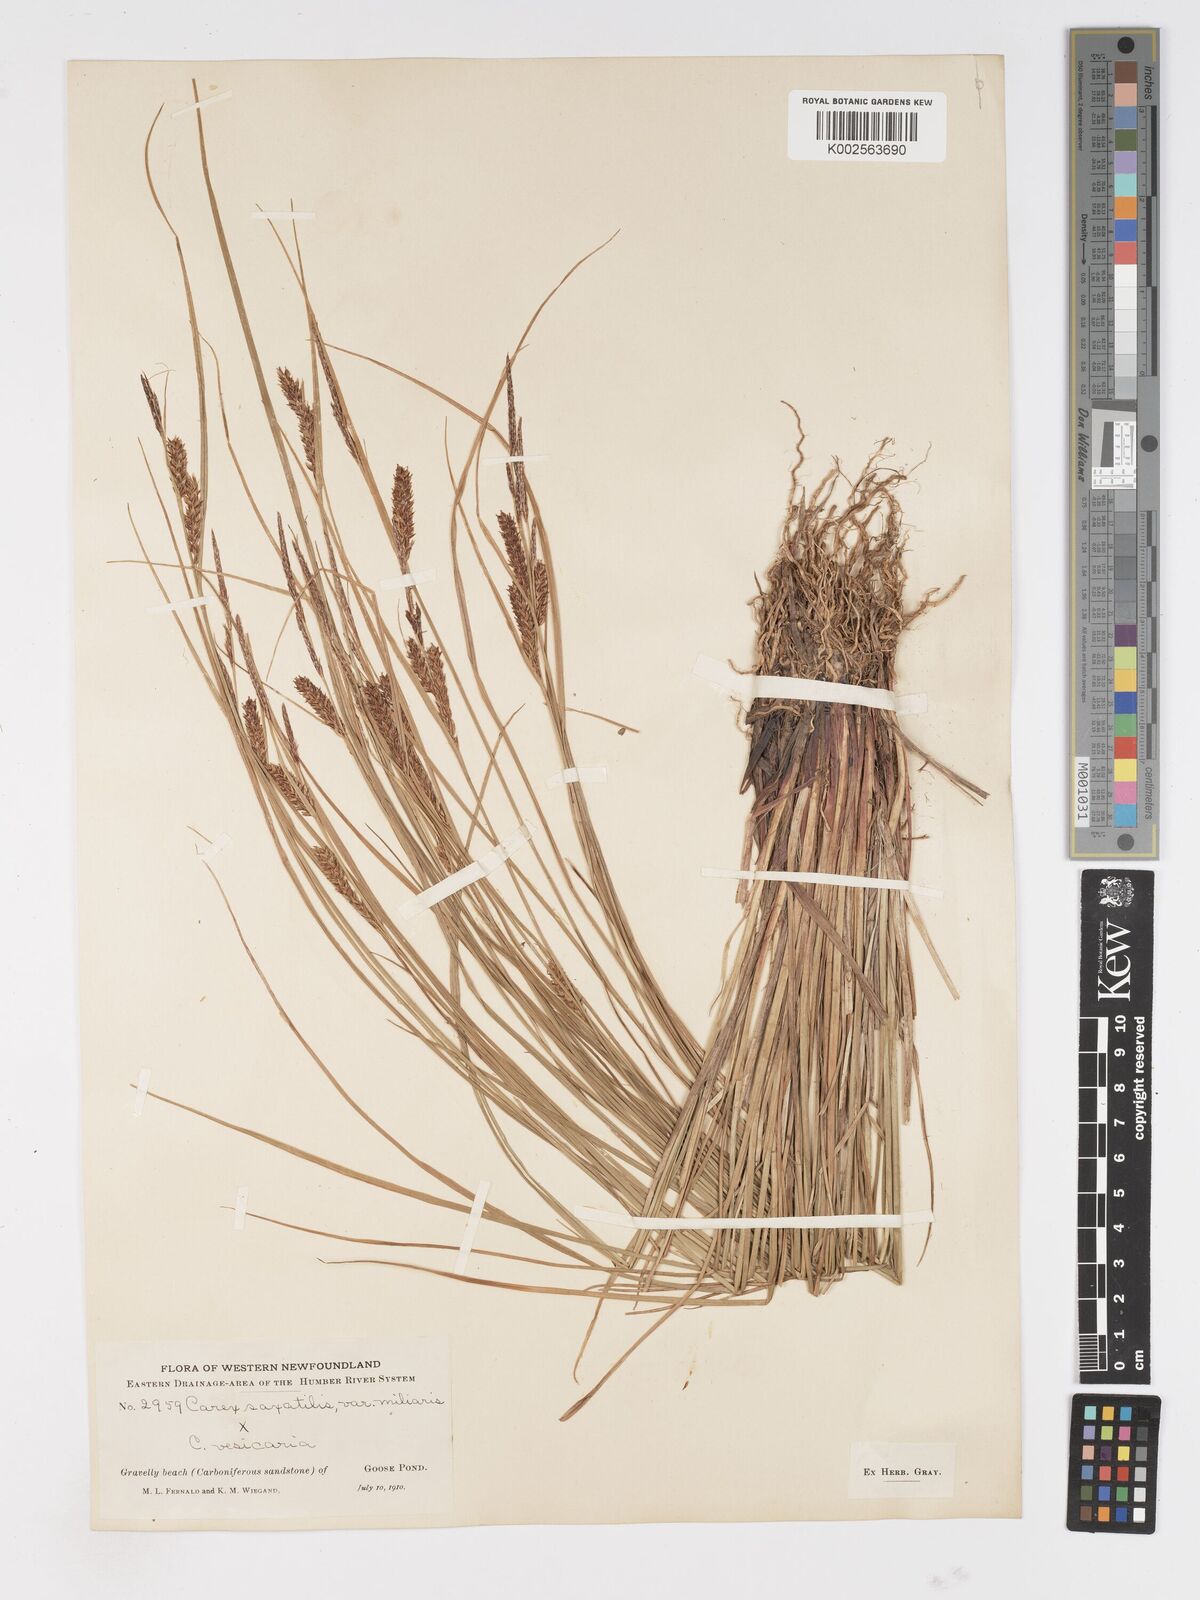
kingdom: Plantae
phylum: Tracheophyta
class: Liliopsida
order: Poales
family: Cyperaceae
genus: Carex
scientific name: Carex mainensis
